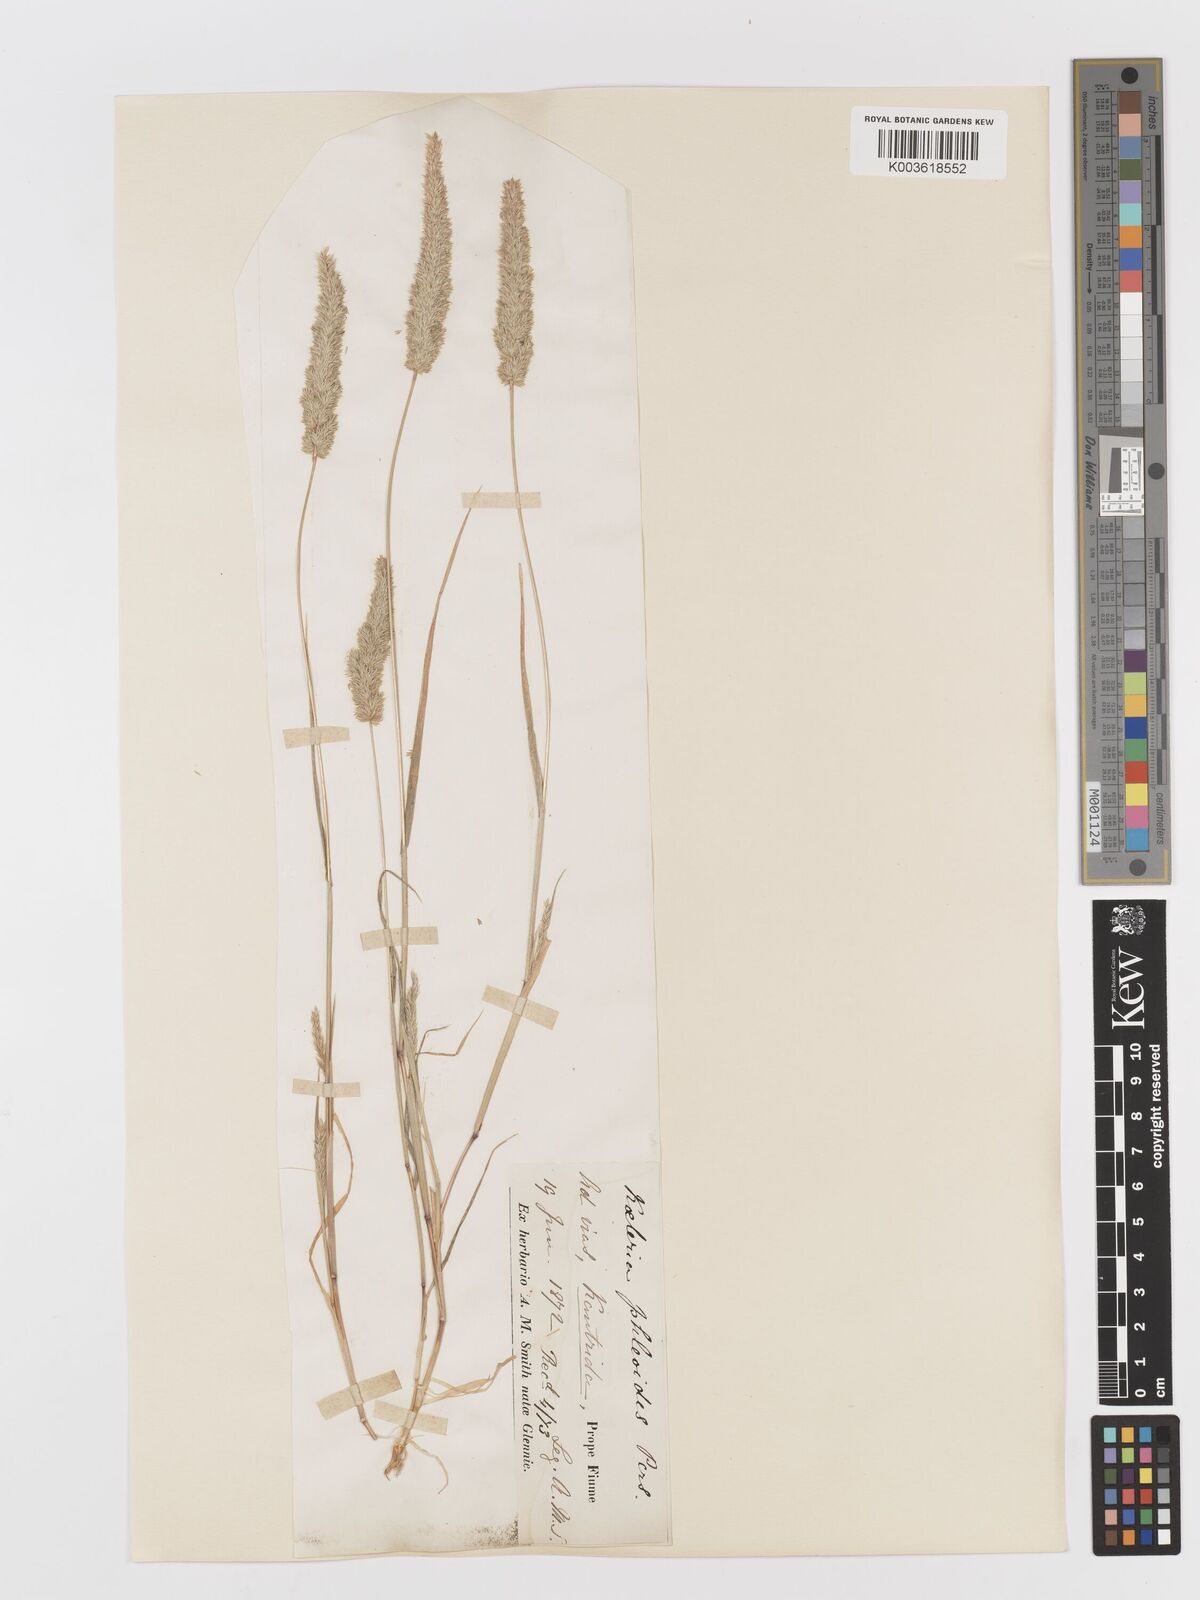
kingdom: Plantae
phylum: Tracheophyta
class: Liliopsida
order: Poales
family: Poaceae
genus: Rostraria
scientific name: Rostraria cristata
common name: Mediterranean hair-grass
